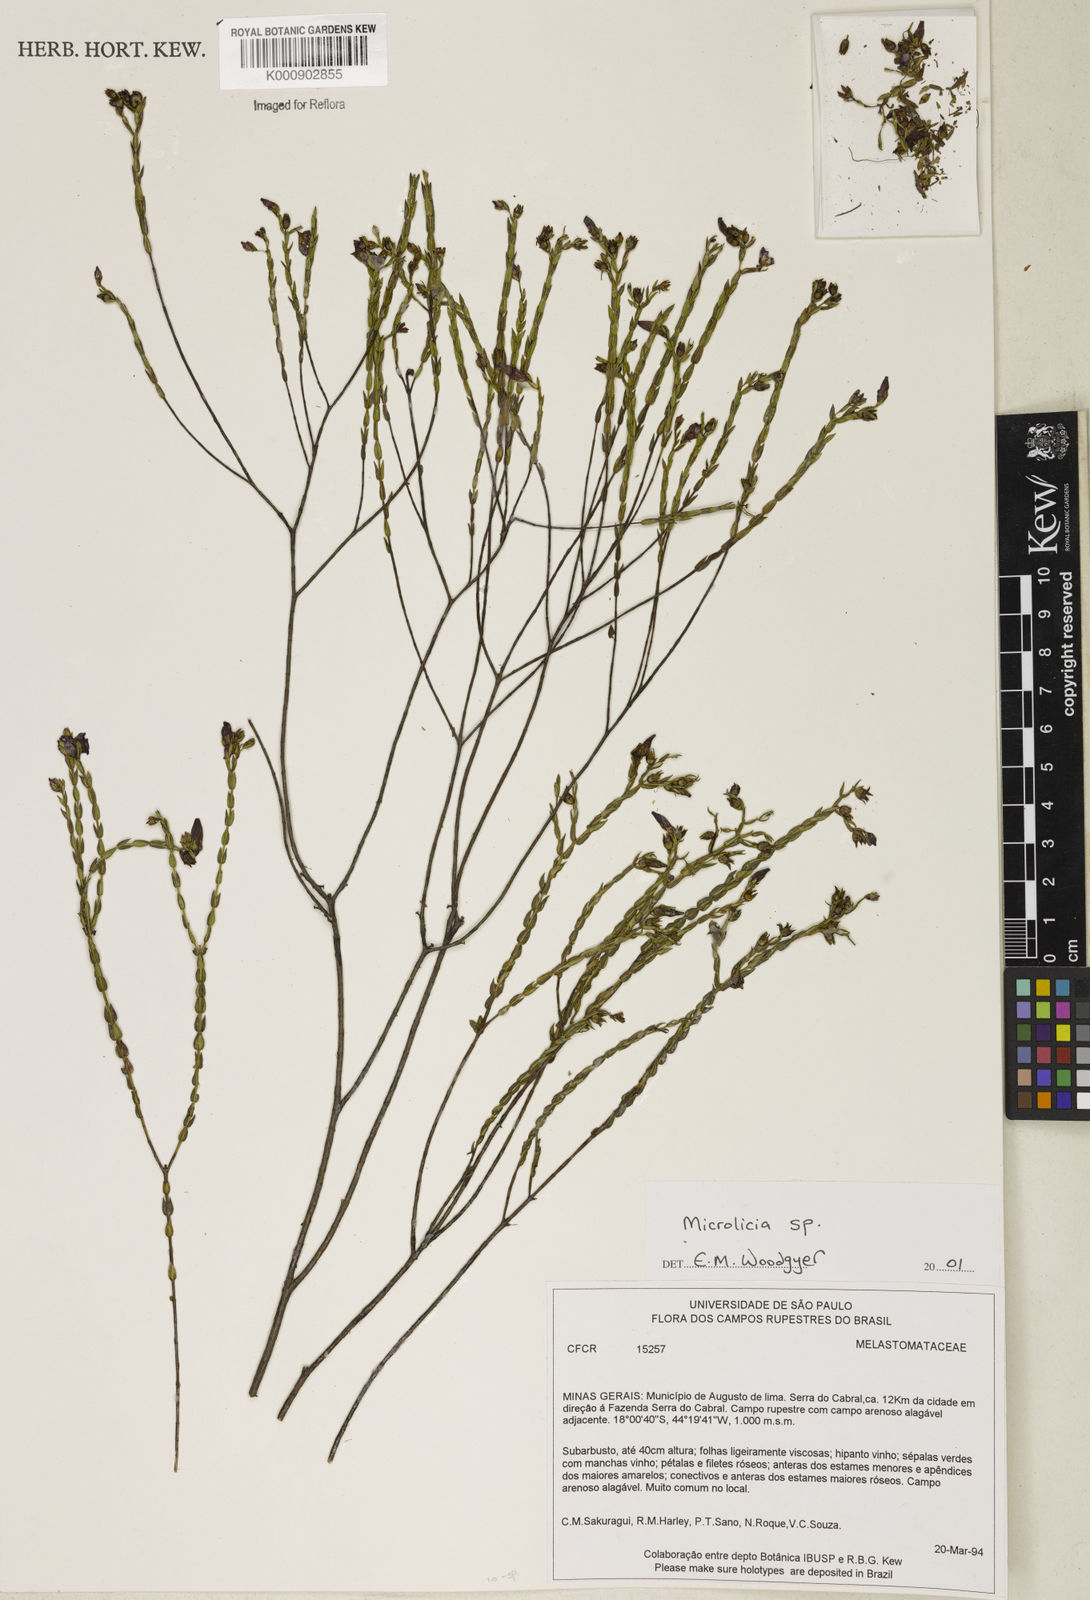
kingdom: Plantae
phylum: Tracheophyta
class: Magnoliopsida
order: Myrtales
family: Melastomataceae
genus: Microlicia
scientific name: Microlicia
